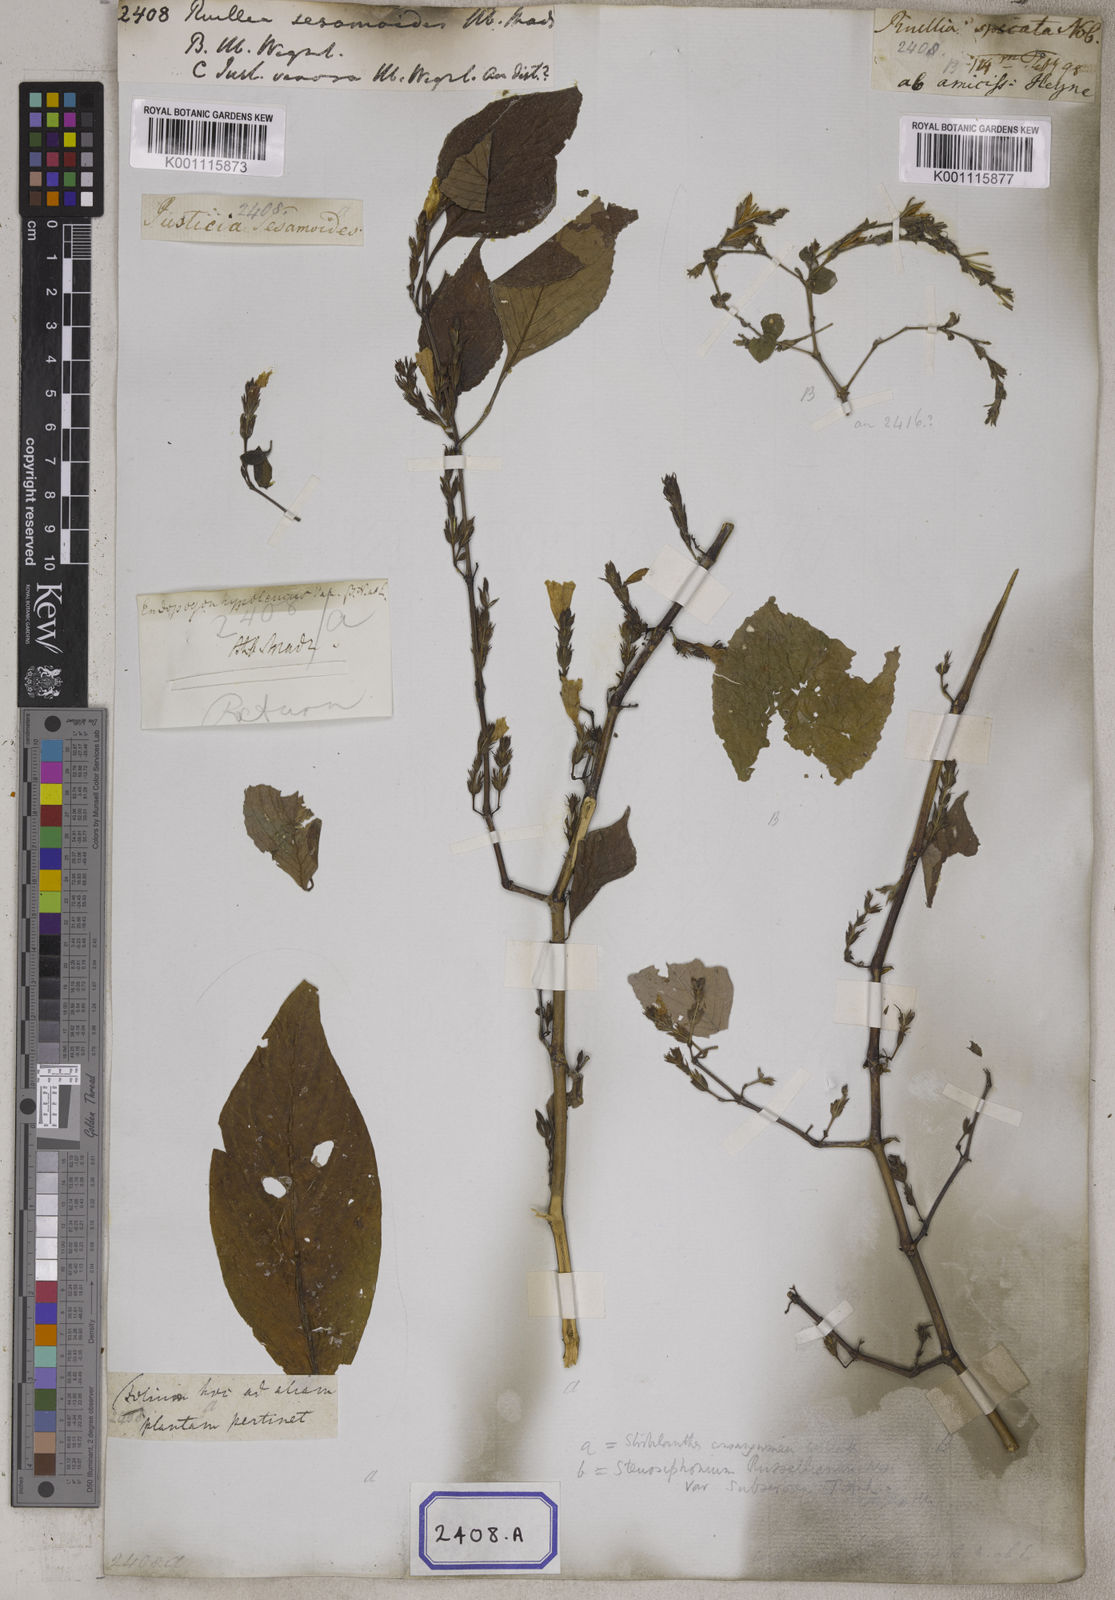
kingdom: Plantae
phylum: Tracheophyta
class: Magnoliopsida
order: Lamiales
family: Acanthaceae
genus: Strobilanthes
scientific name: Strobilanthes consanguinea
